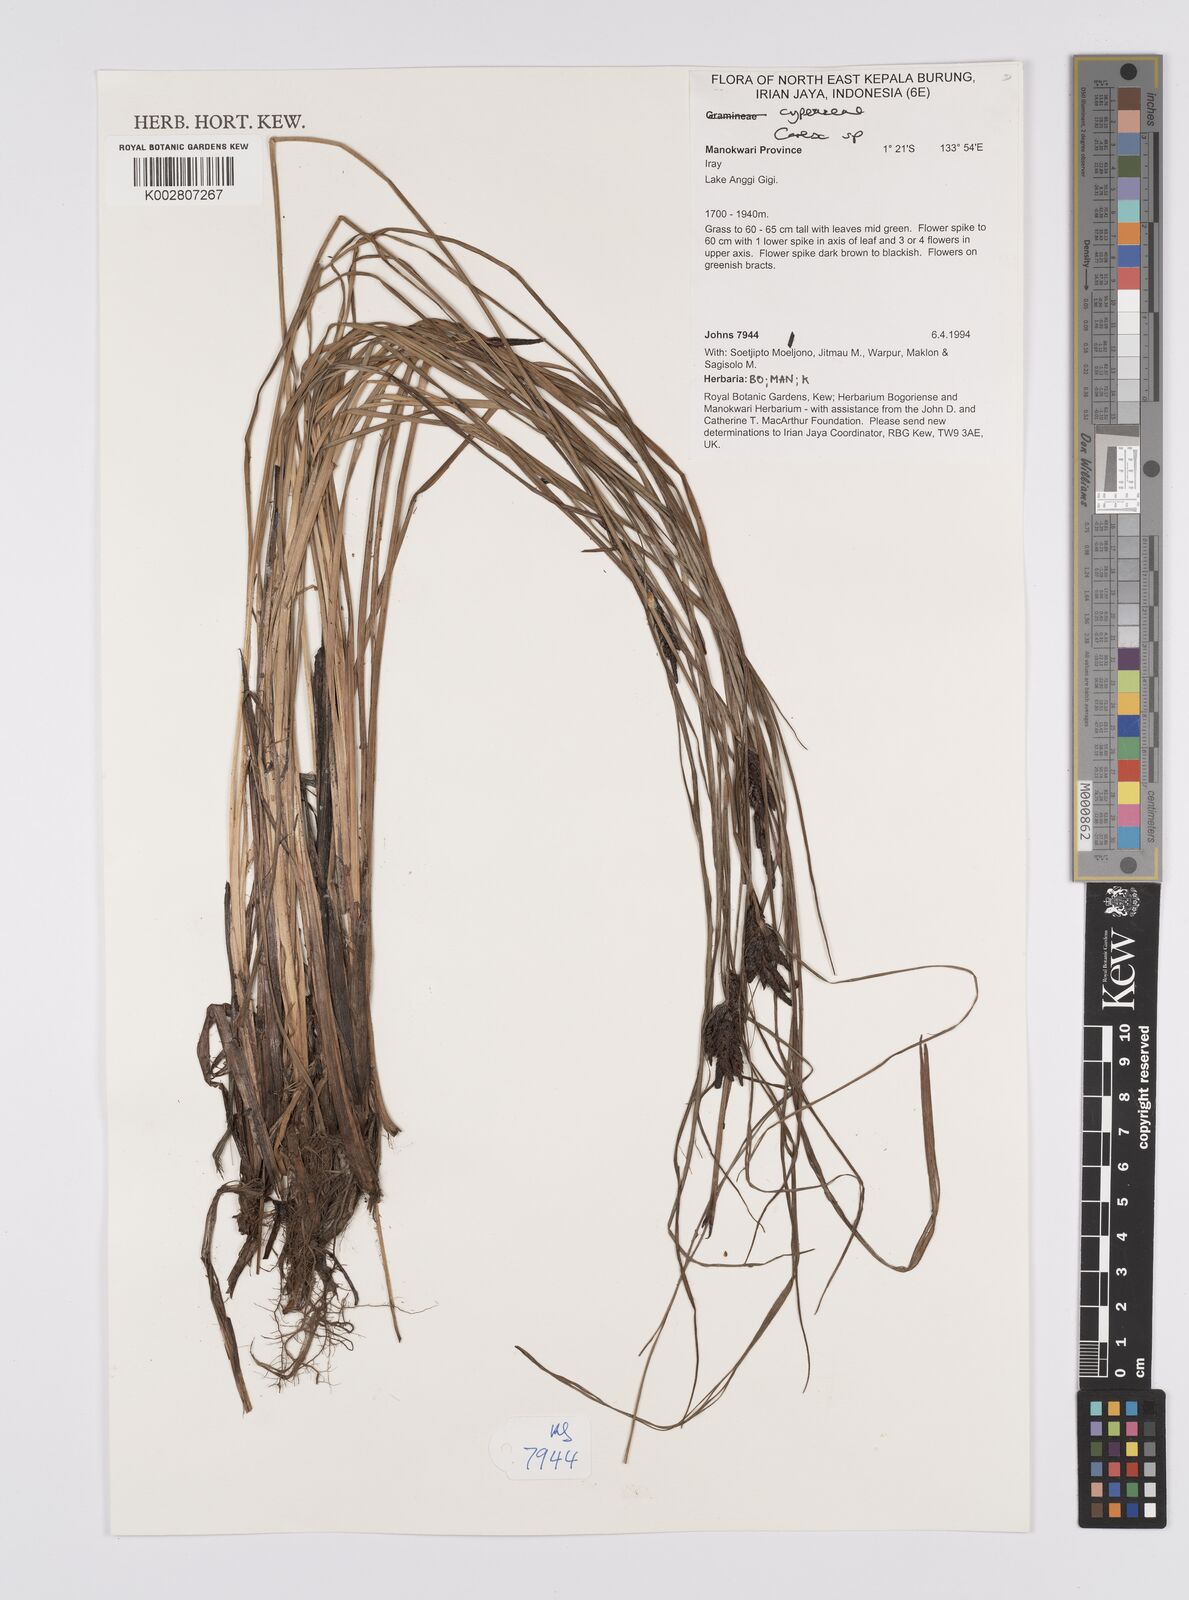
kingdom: Plantae
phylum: Tracheophyta
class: Liliopsida
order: Poales
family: Cyperaceae
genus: Carex
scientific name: Carex
